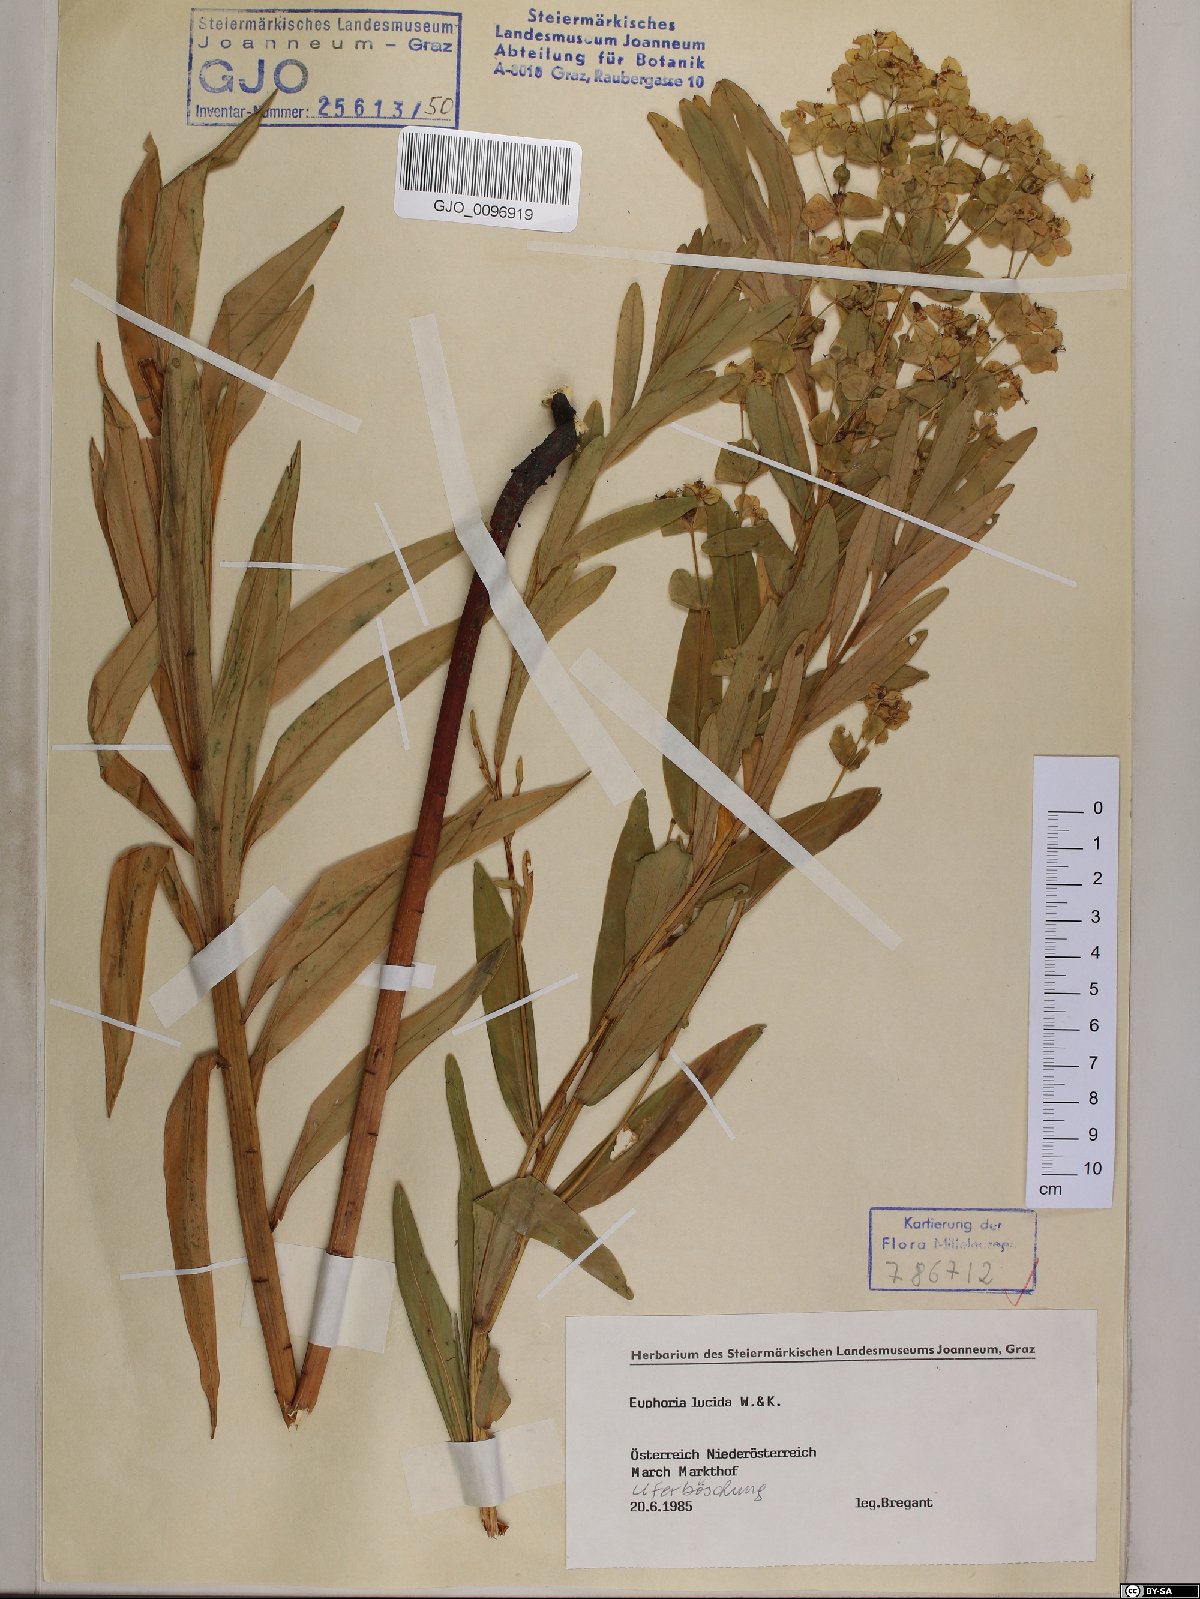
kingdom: Plantae
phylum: Tracheophyta
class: Magnoliopsida
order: Malpighiales
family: Euphorbiaceae
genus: Euphorbia
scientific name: Euphorbia lucida
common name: Shining spurge
